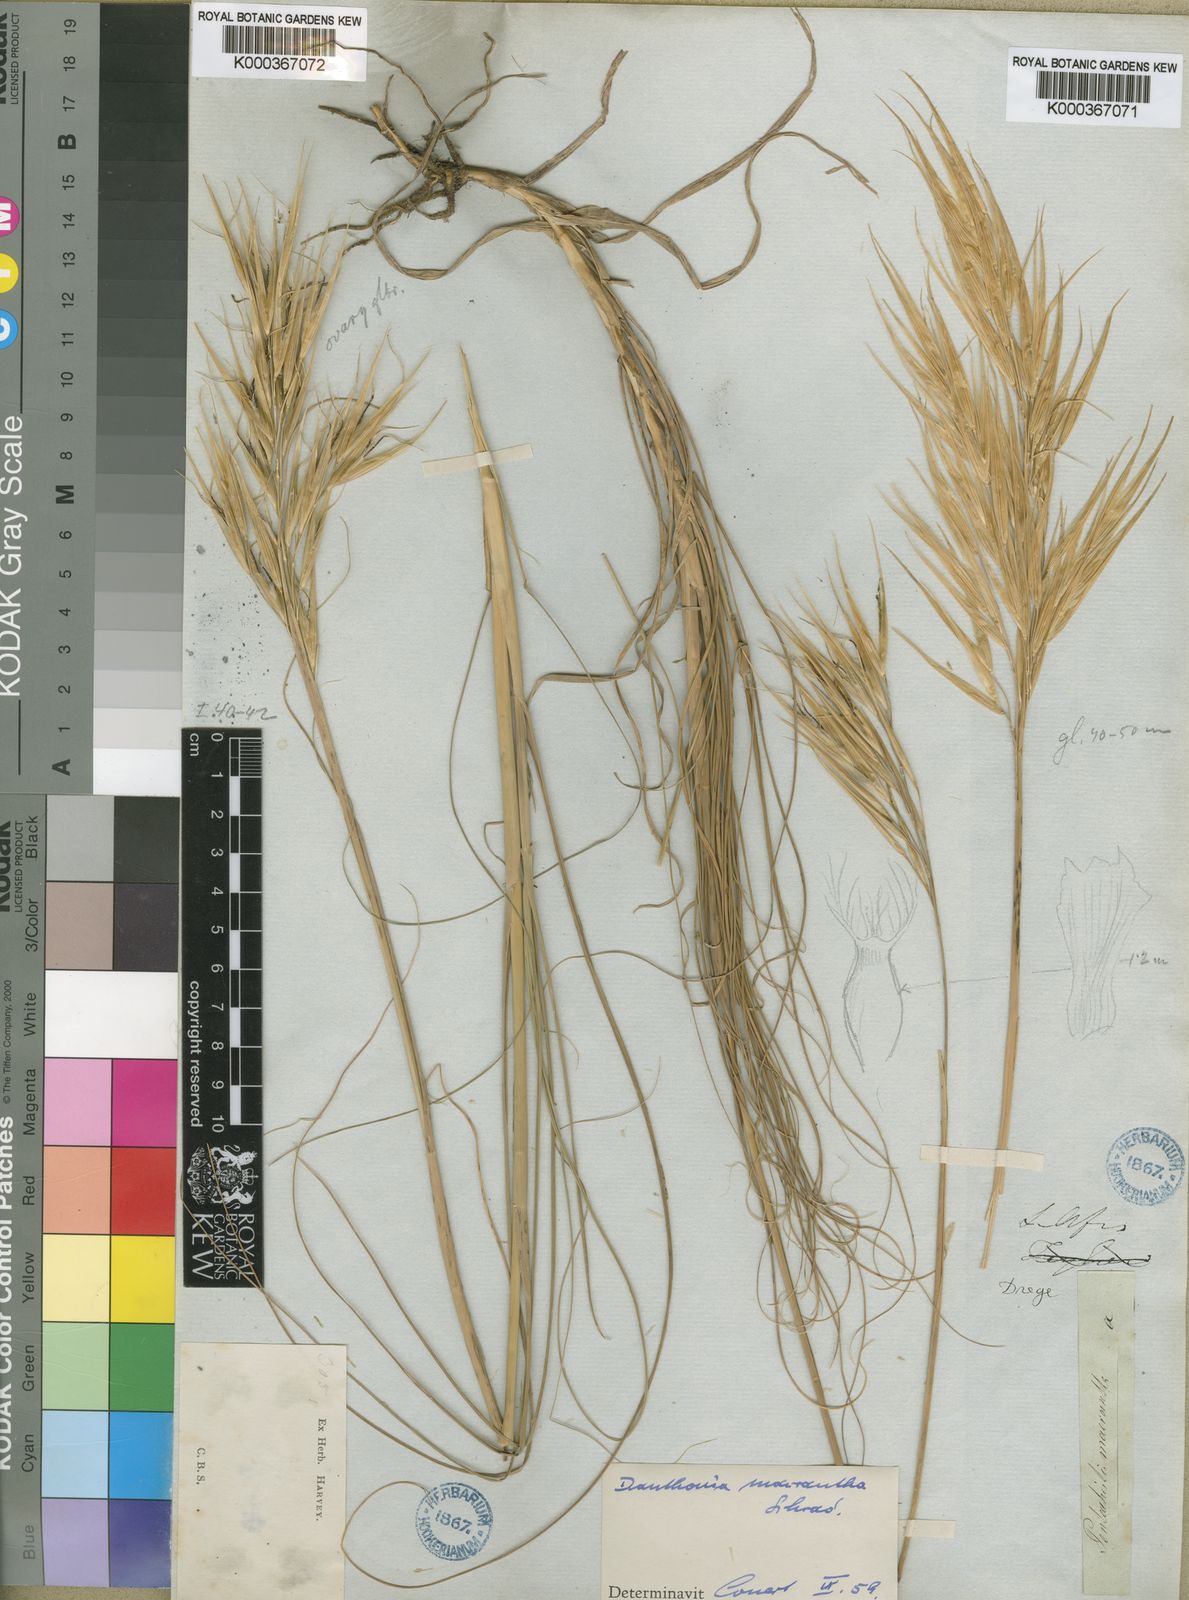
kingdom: Plantae
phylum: Tracheophyta
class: Liliopsida
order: Poales
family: Poaceae
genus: Pseudopentameris
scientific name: Pseudopentameris macrantha
